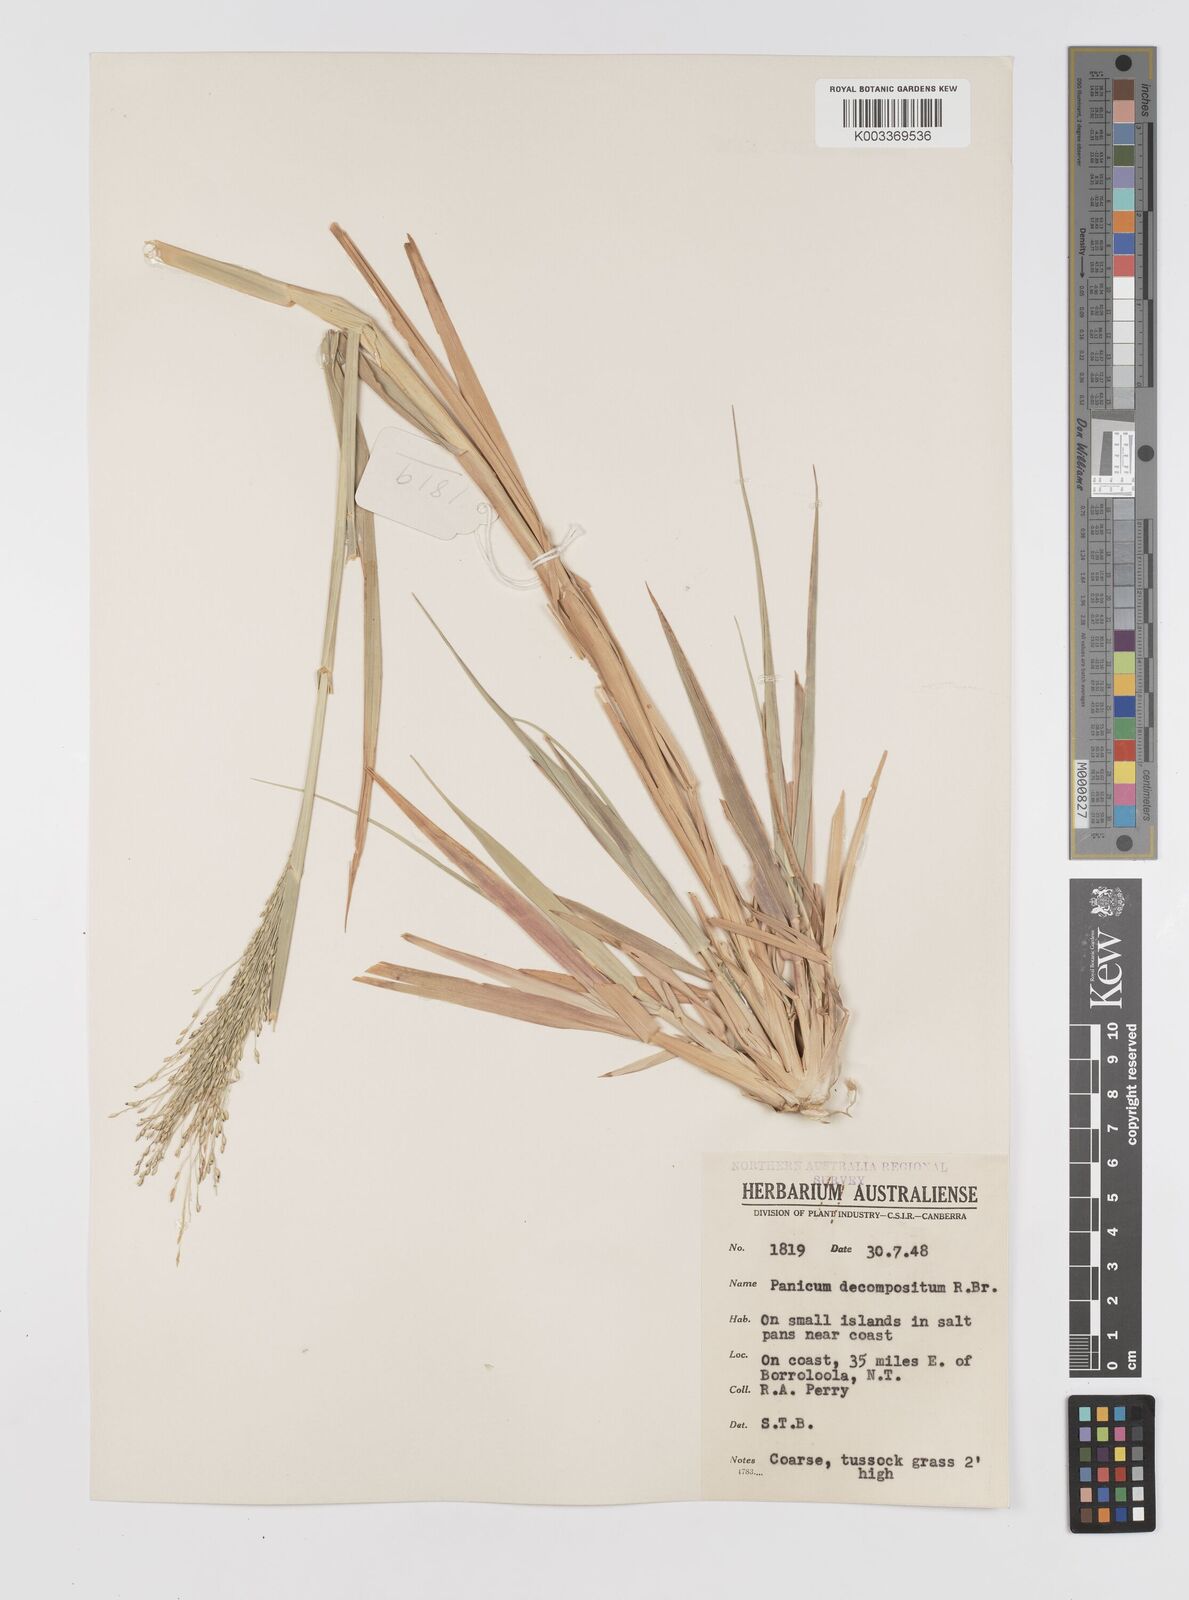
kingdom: Plantae
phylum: Tracheophyta
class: Liliopsida
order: Poales
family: Poaceae
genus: Panicum
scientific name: Panicum decompositum
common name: Australian millet
